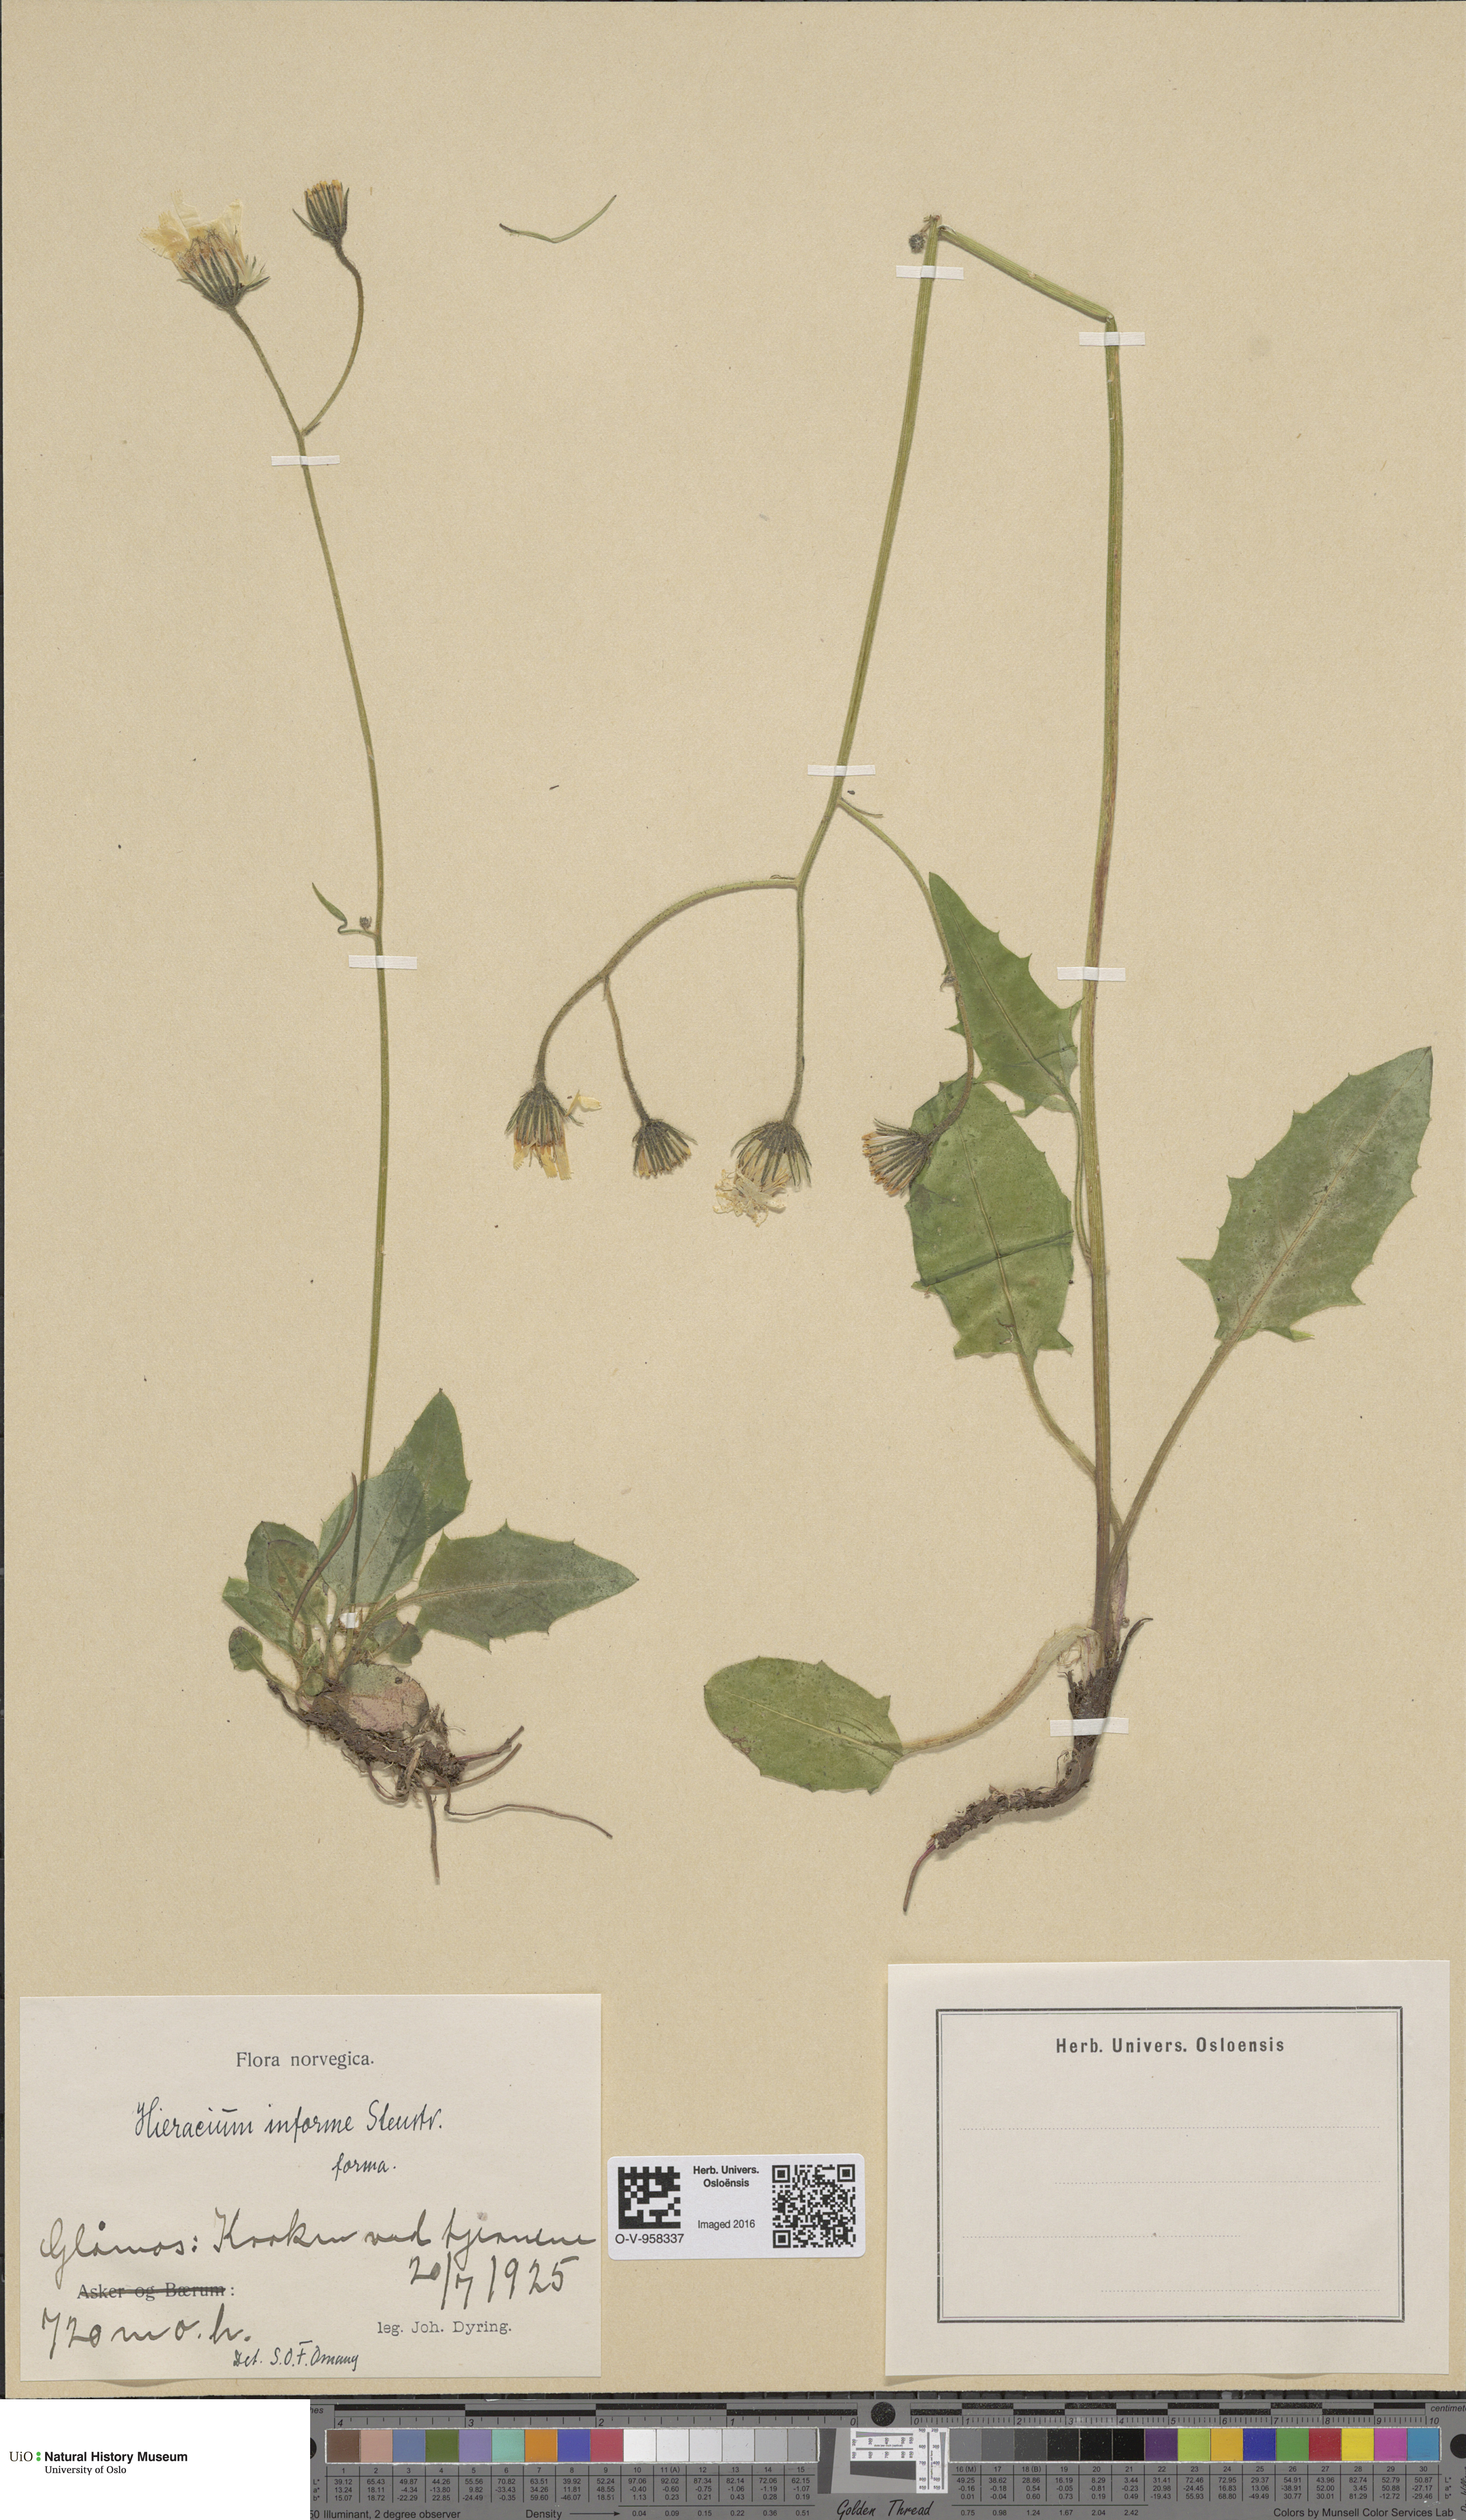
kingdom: Plantae
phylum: Tracheophyta
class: Magnoliopsida
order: Asterales
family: Asteraceae
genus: Hieracium
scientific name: Hieracium informe
